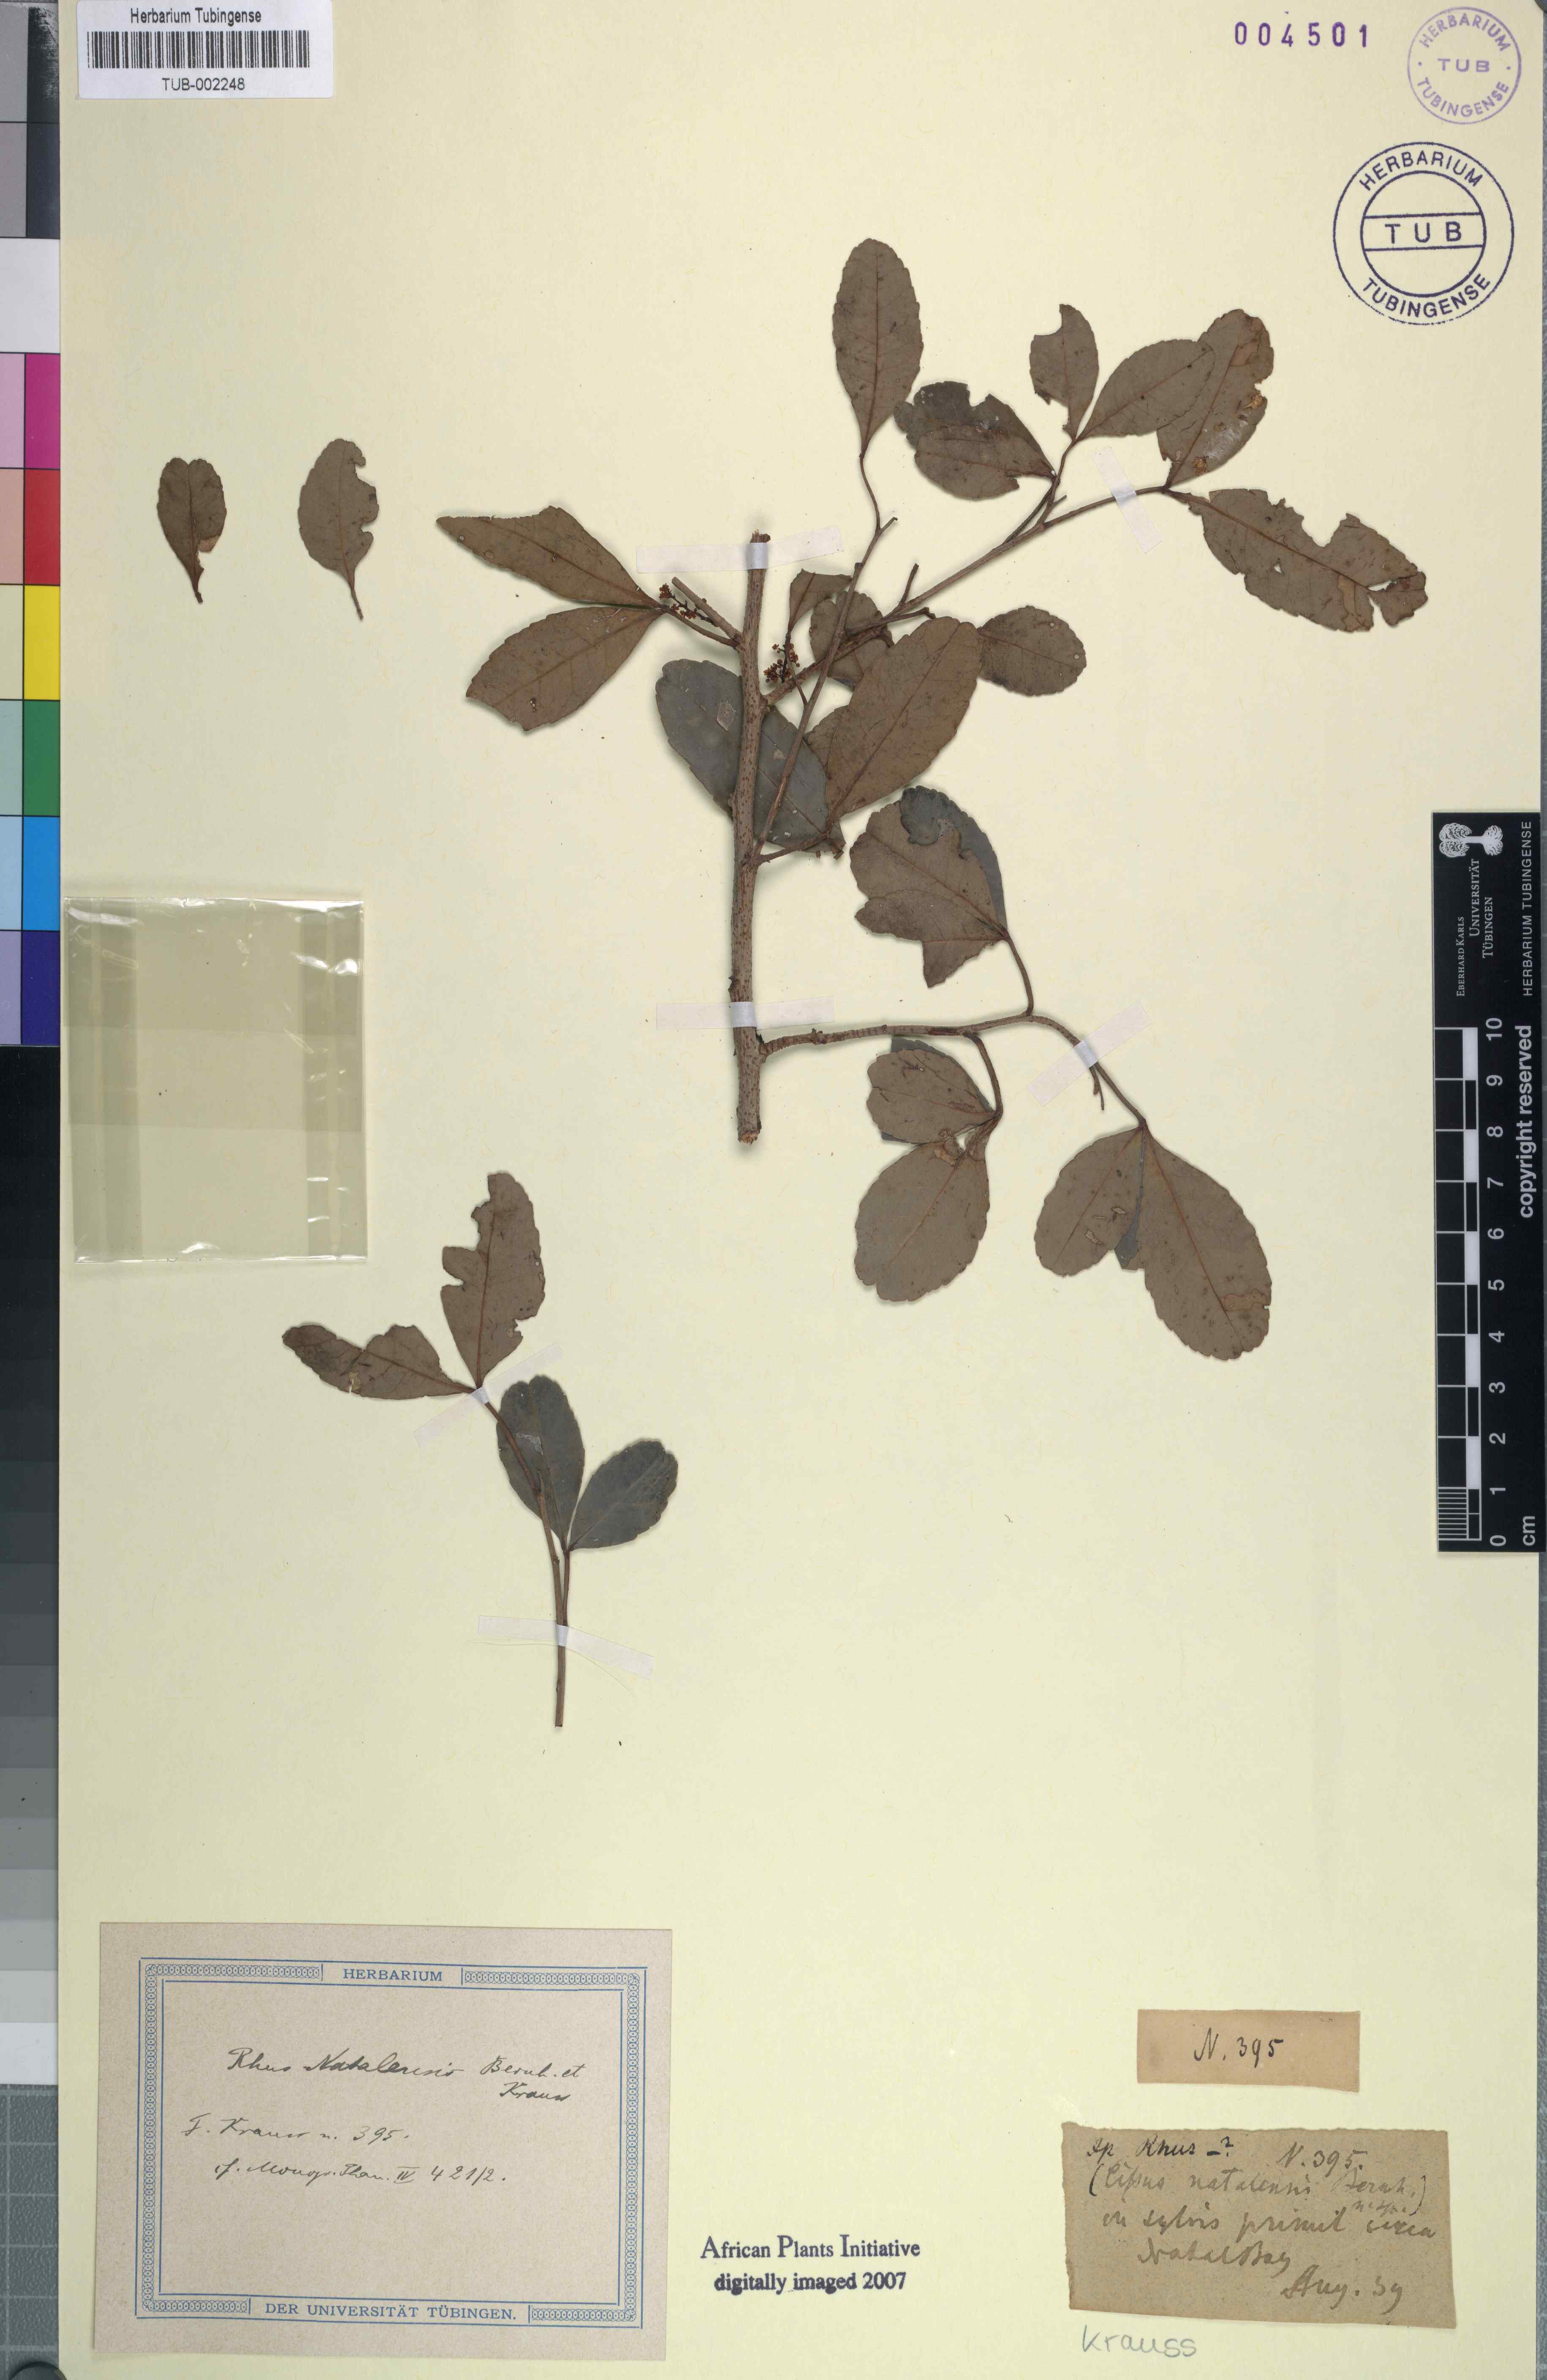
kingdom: Plantae
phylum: Tracheophyta
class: Magnoliopsida
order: Sapindales
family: Anacardiaceae
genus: Searsia
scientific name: Searsia natalensis
